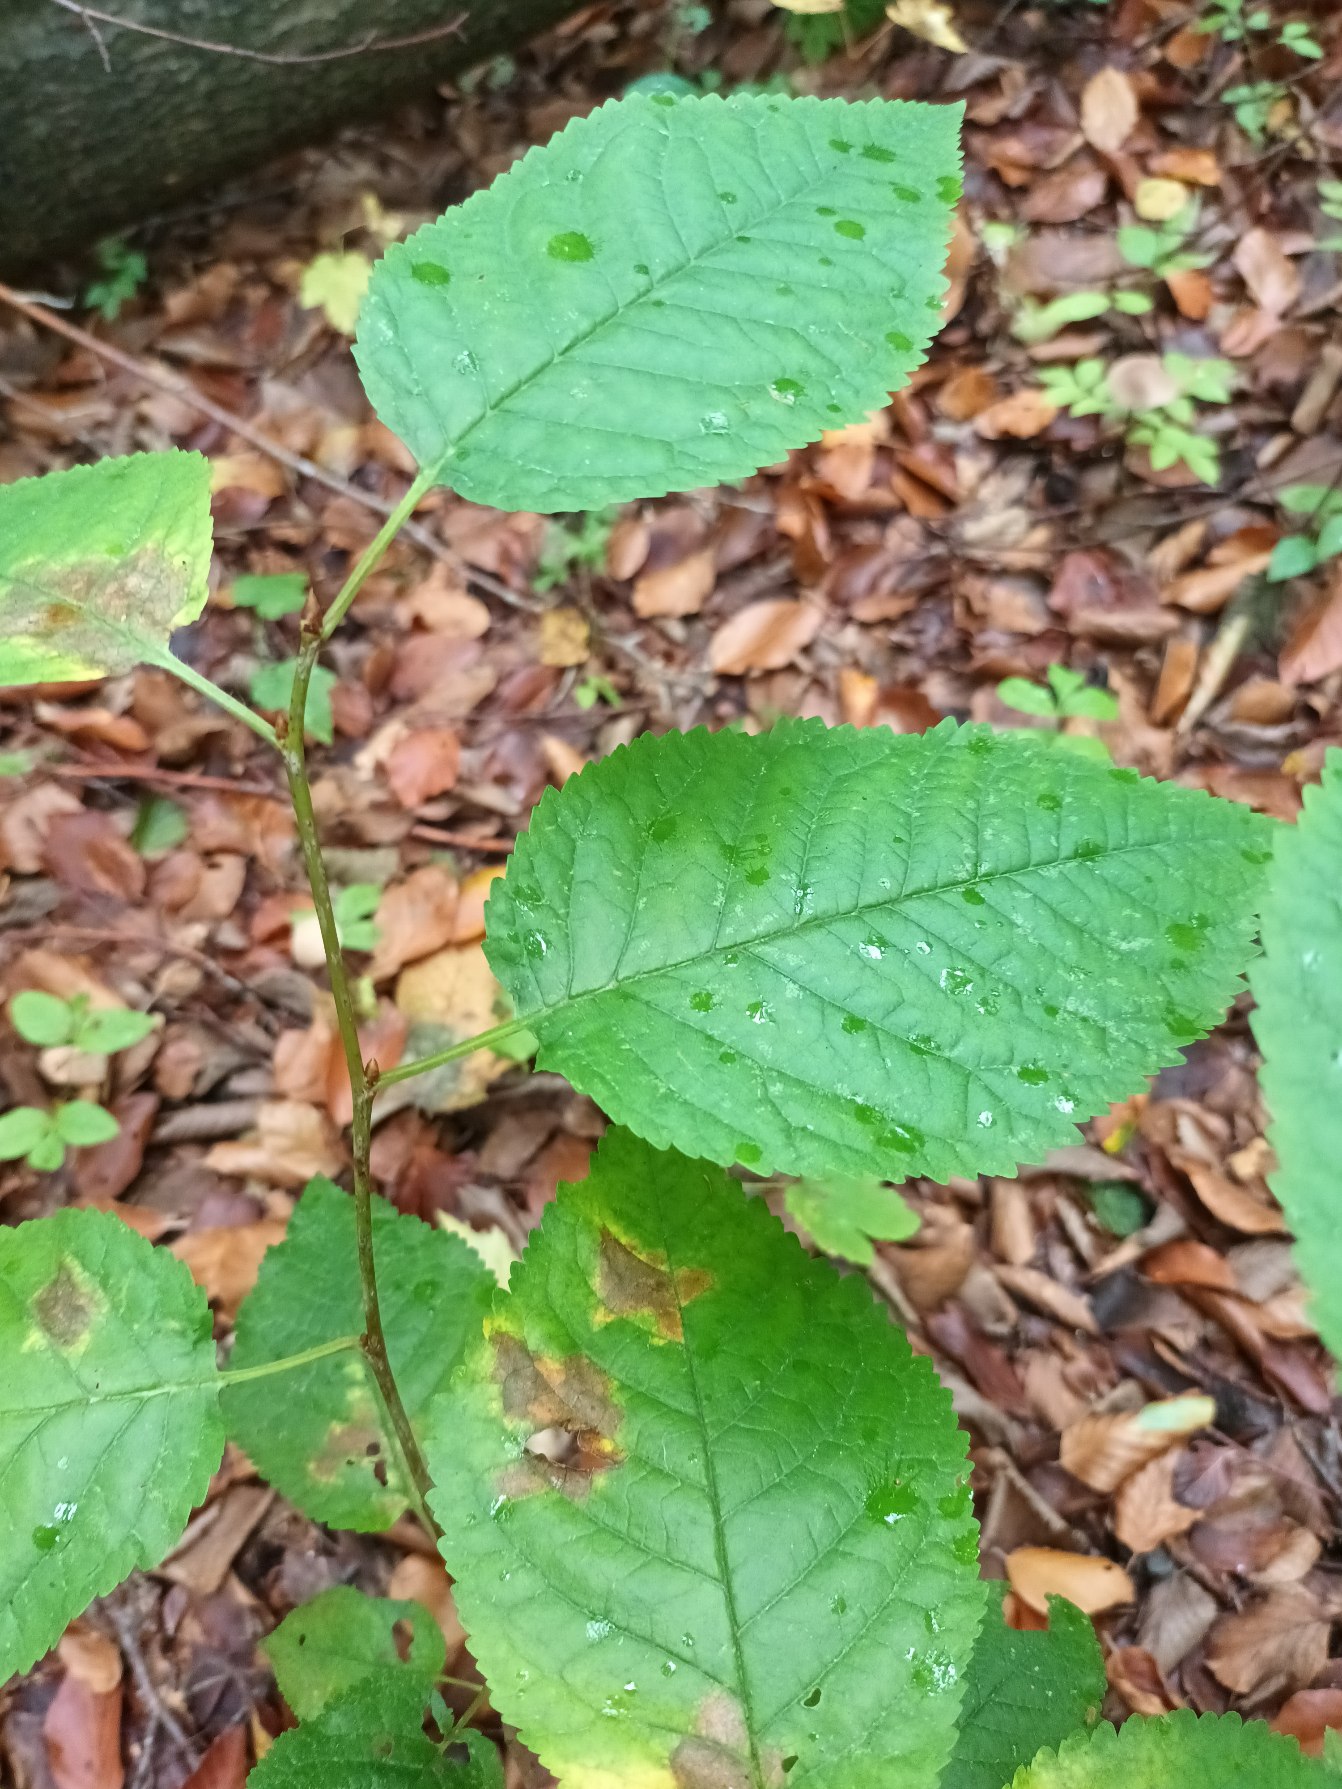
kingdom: Plantae
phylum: Tracheophyta
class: Magnoliopsida
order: Rosales
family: Rosaceae
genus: Prunus
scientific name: Prunus avium
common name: Fugle-kirsebær
